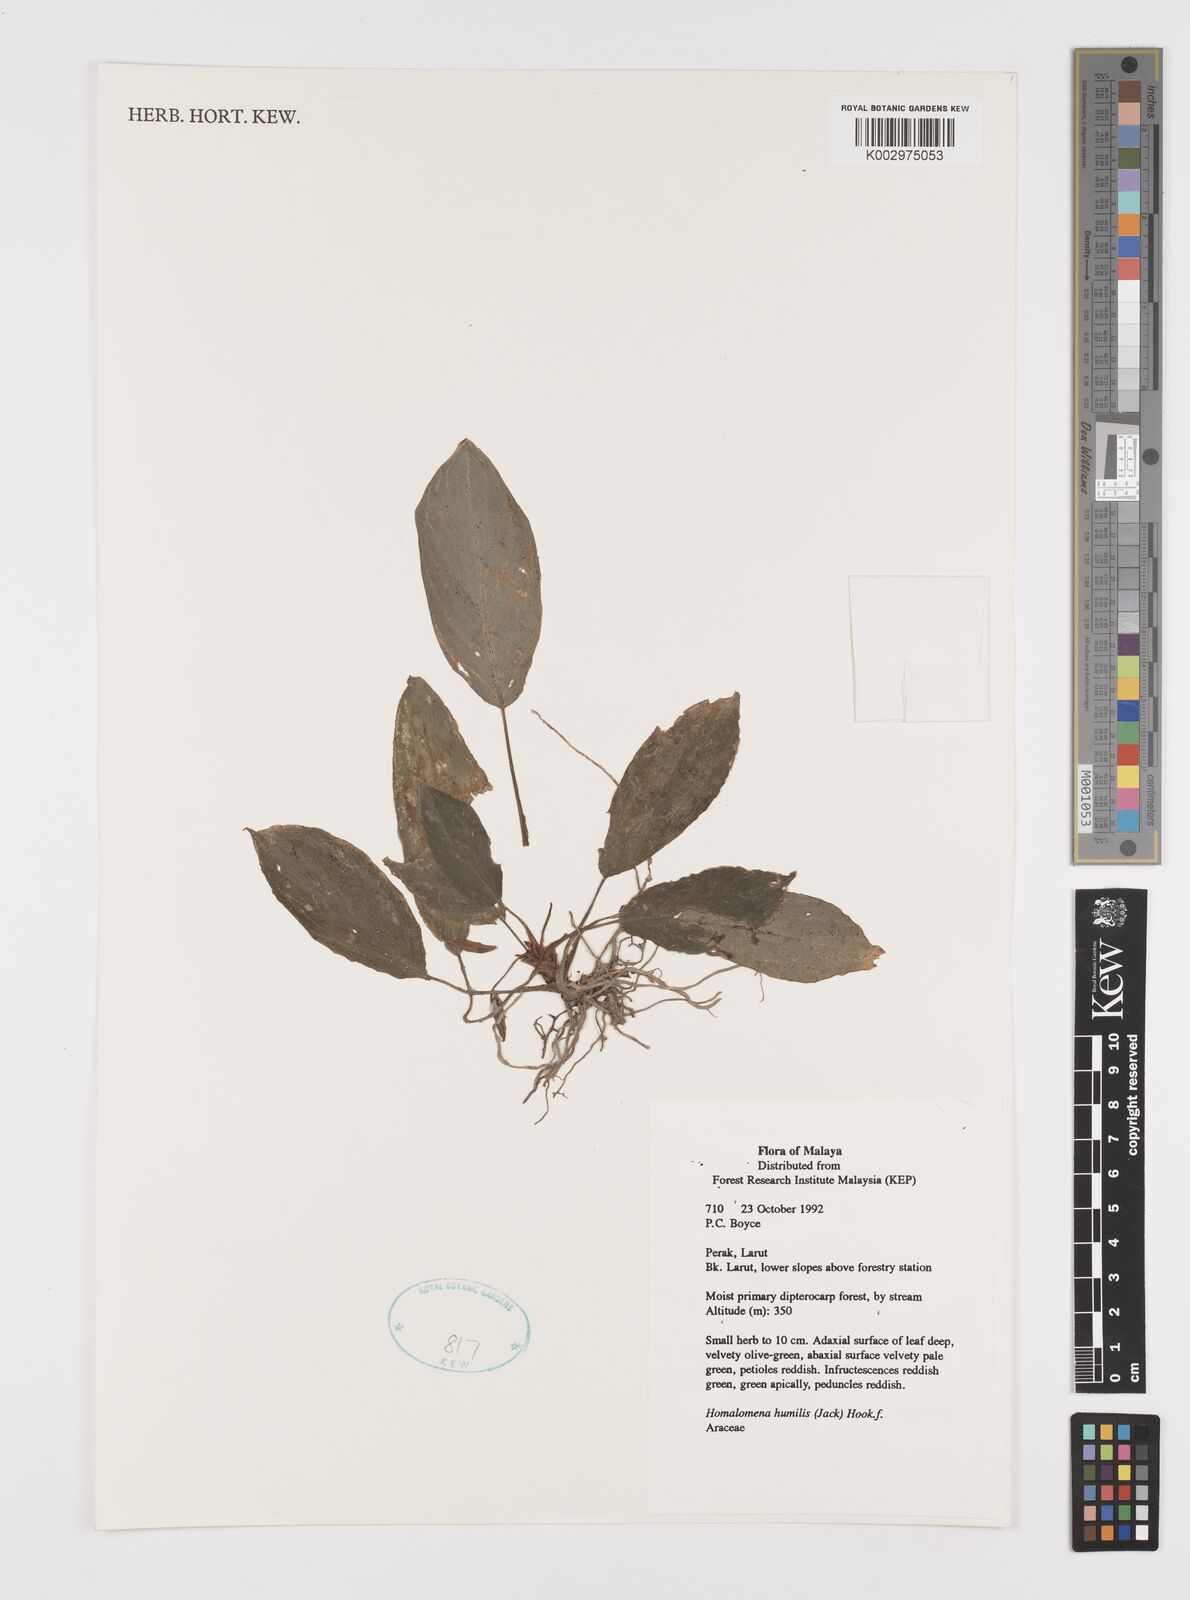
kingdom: Plantae
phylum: Tracheophyta
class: Liliopsida
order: Alismatales
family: Araceae
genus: Homalomena
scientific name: Homalomena humilis
